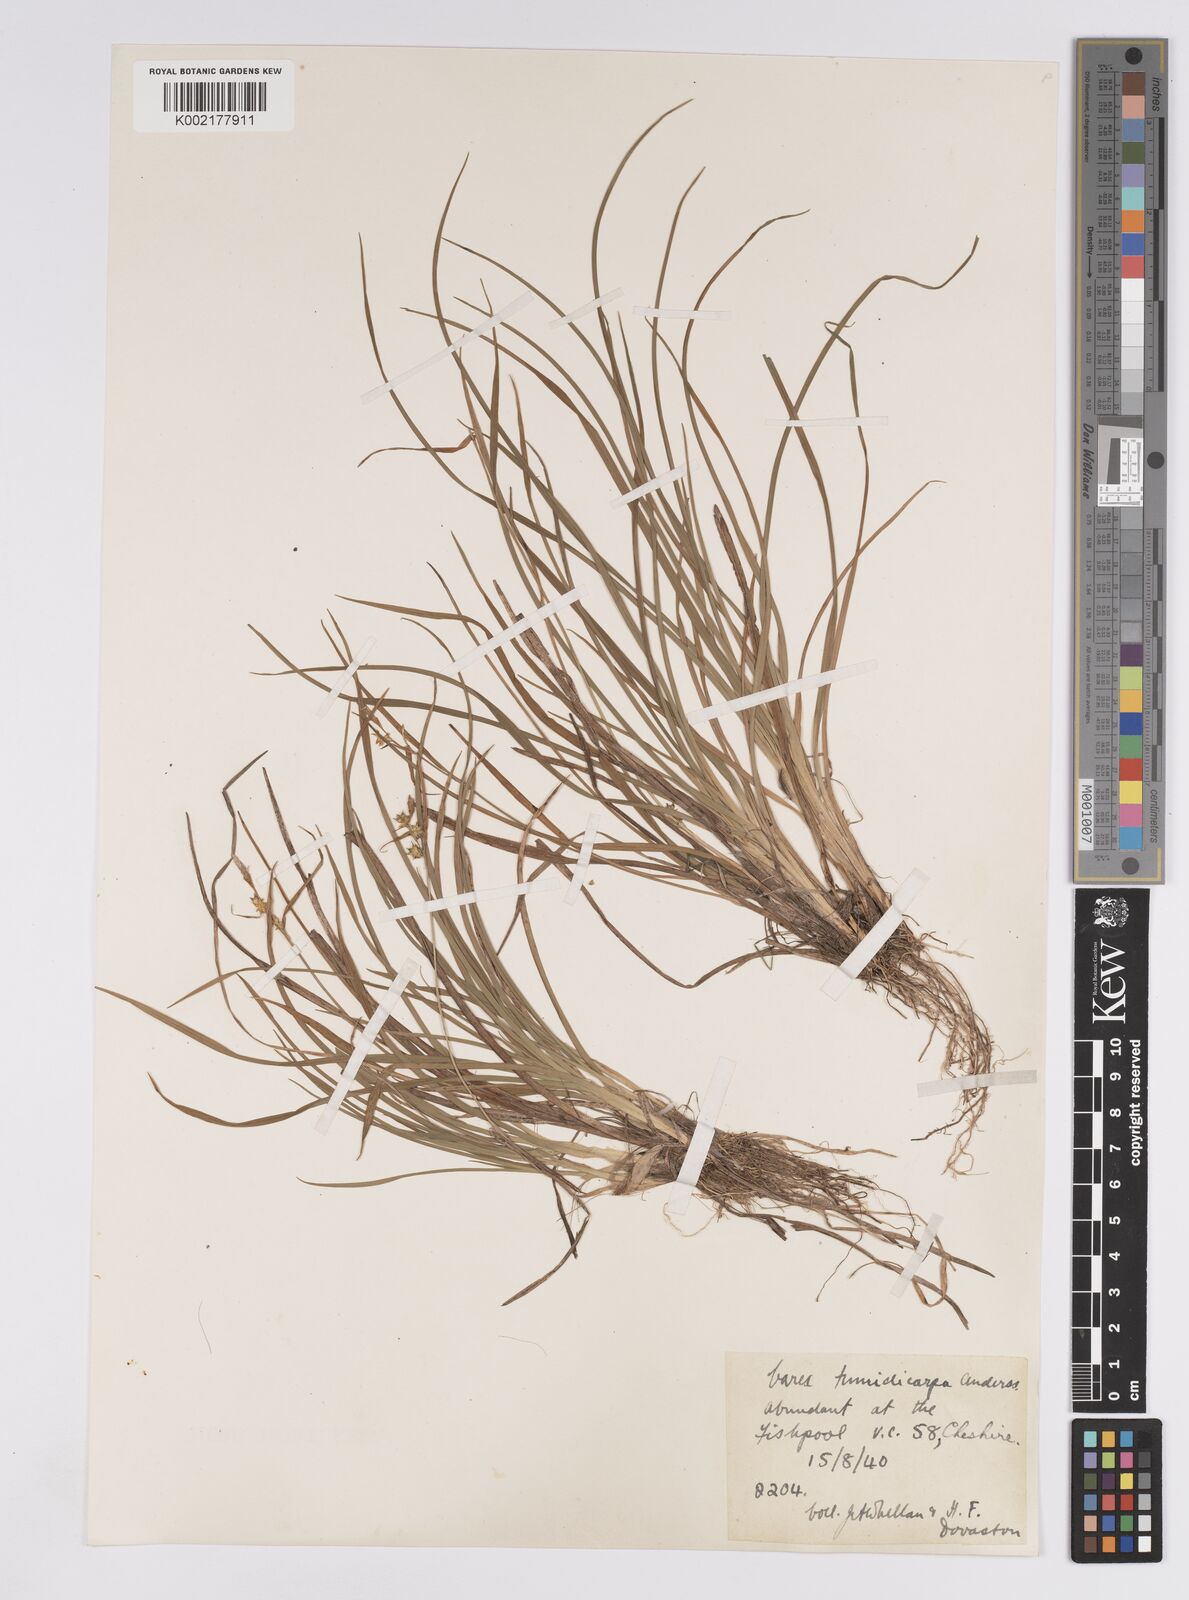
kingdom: Plantae
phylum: Tracheophyta
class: Liliopsida
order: Poales
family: Cyperaceae
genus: Carex
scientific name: Carex demissa
